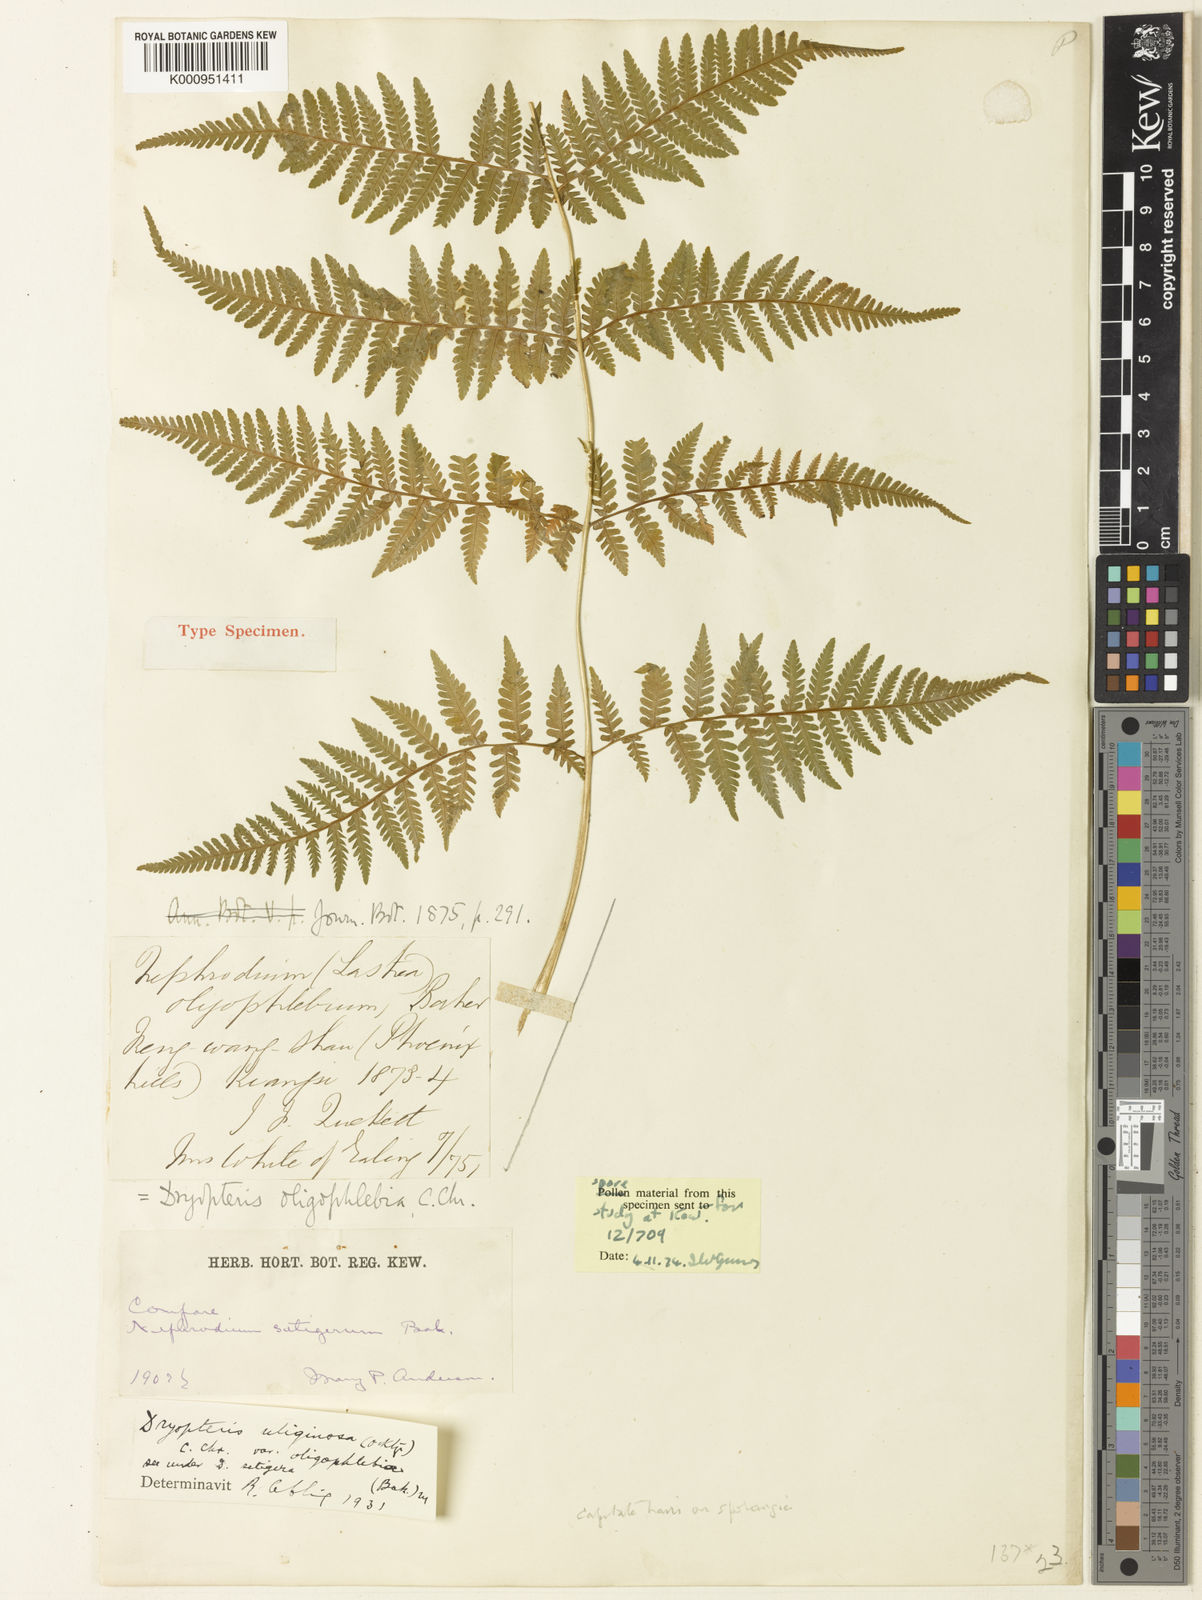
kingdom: Plantae
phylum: Tracheophyta
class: Polypodiopsida
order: Polypodiales
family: Thelypteridaceae
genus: Macrothelypteris
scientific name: Macrothelypteris oligophlebia
